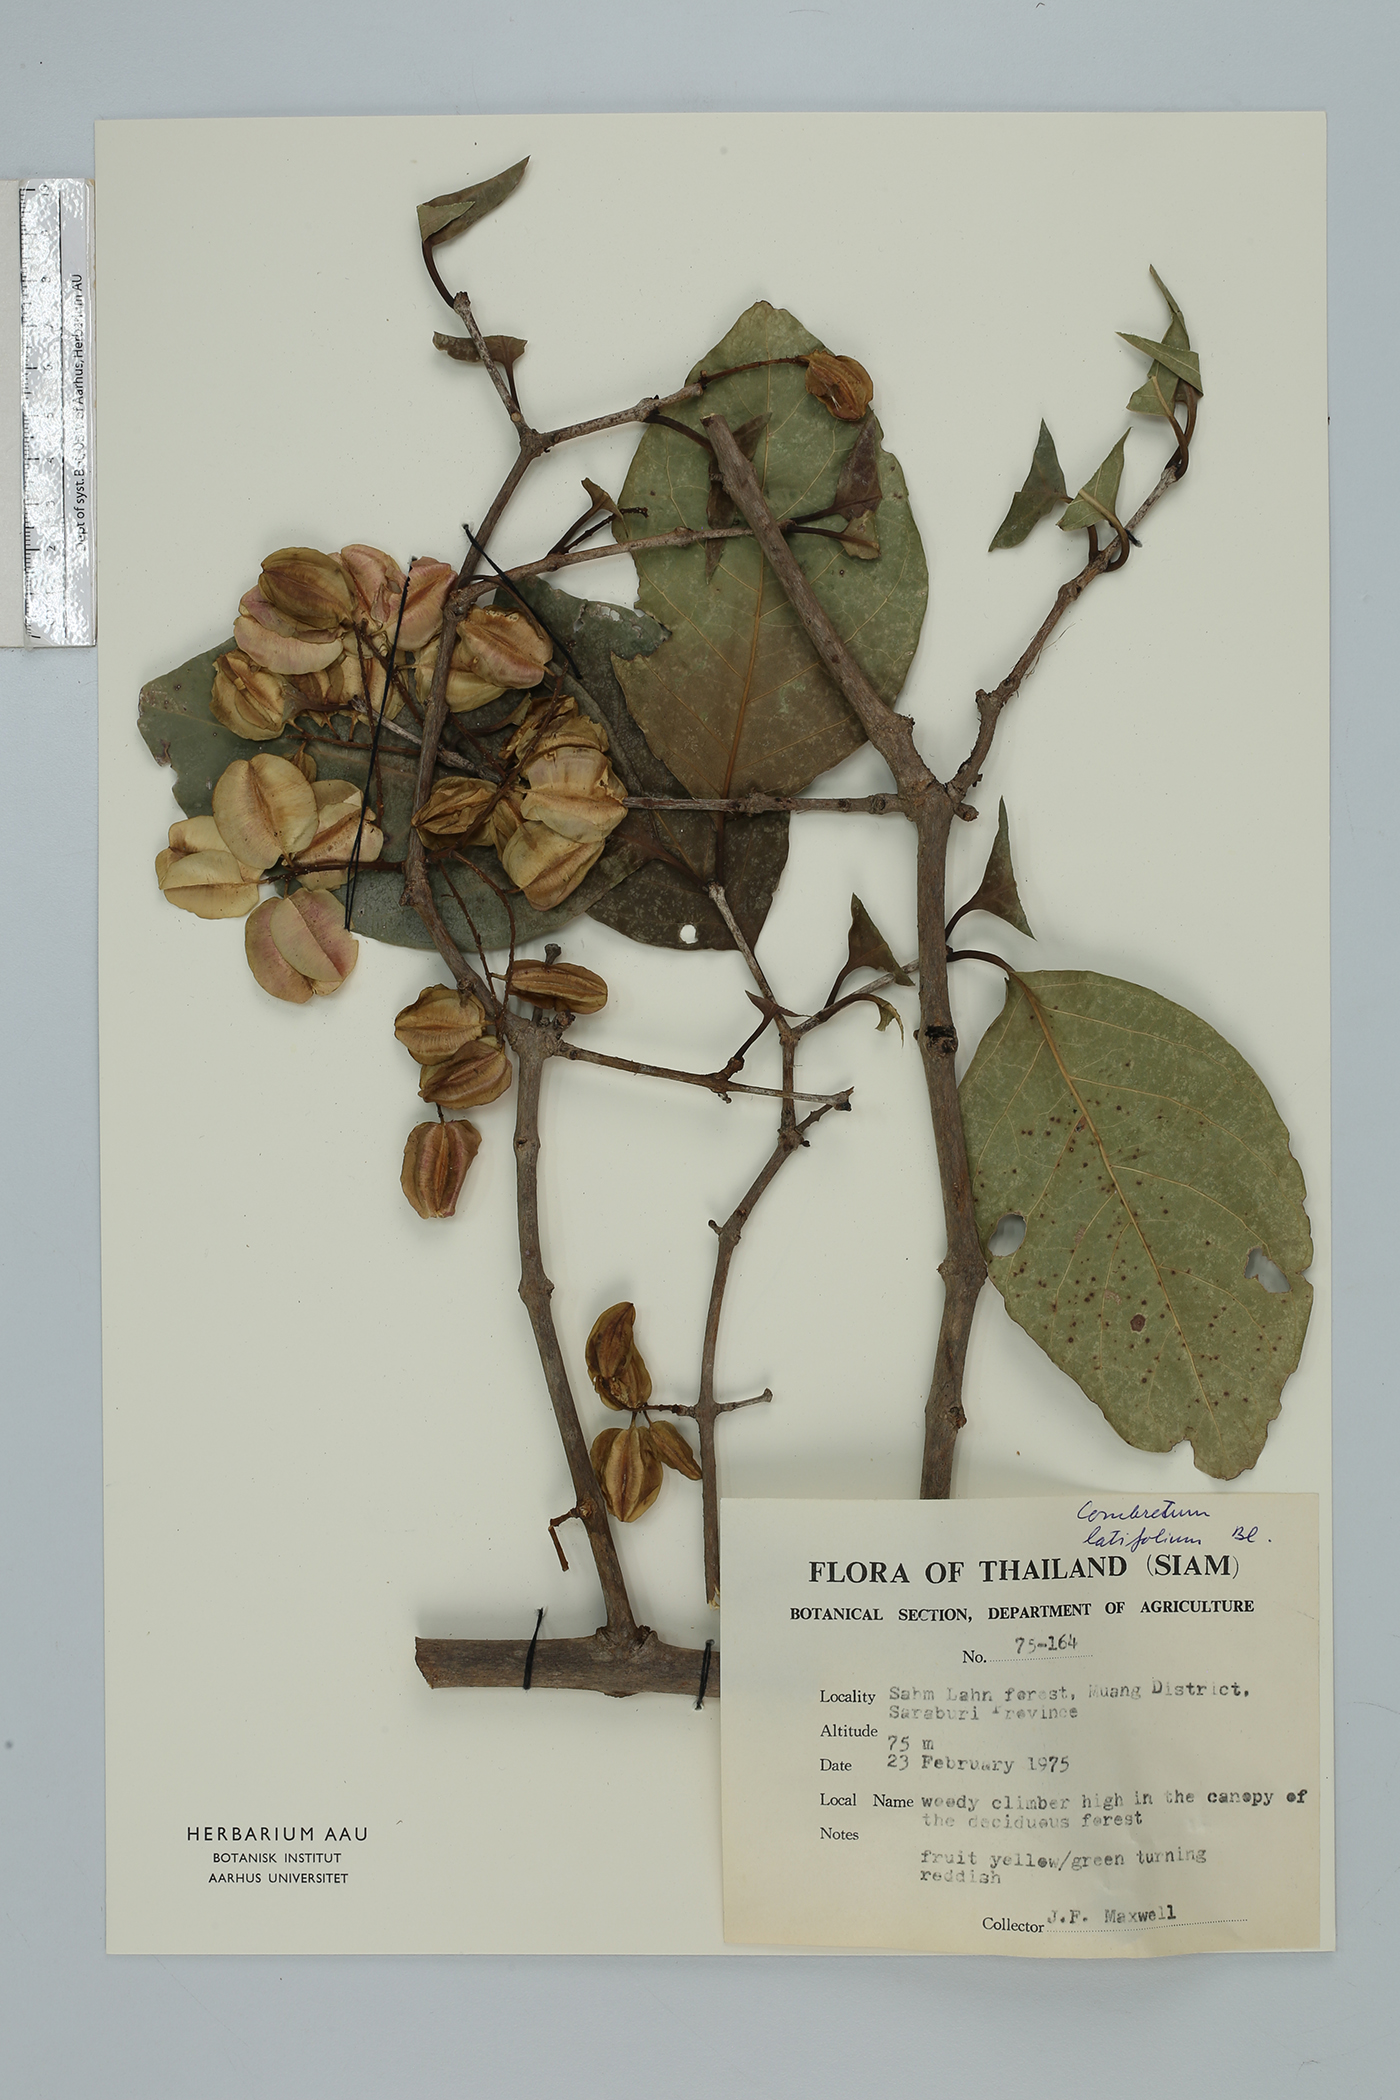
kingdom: Plantae
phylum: Tracheophyta
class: Magnoliopsida
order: Myrtales
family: Combretaceae
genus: Combretum
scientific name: Combretum latifolium
